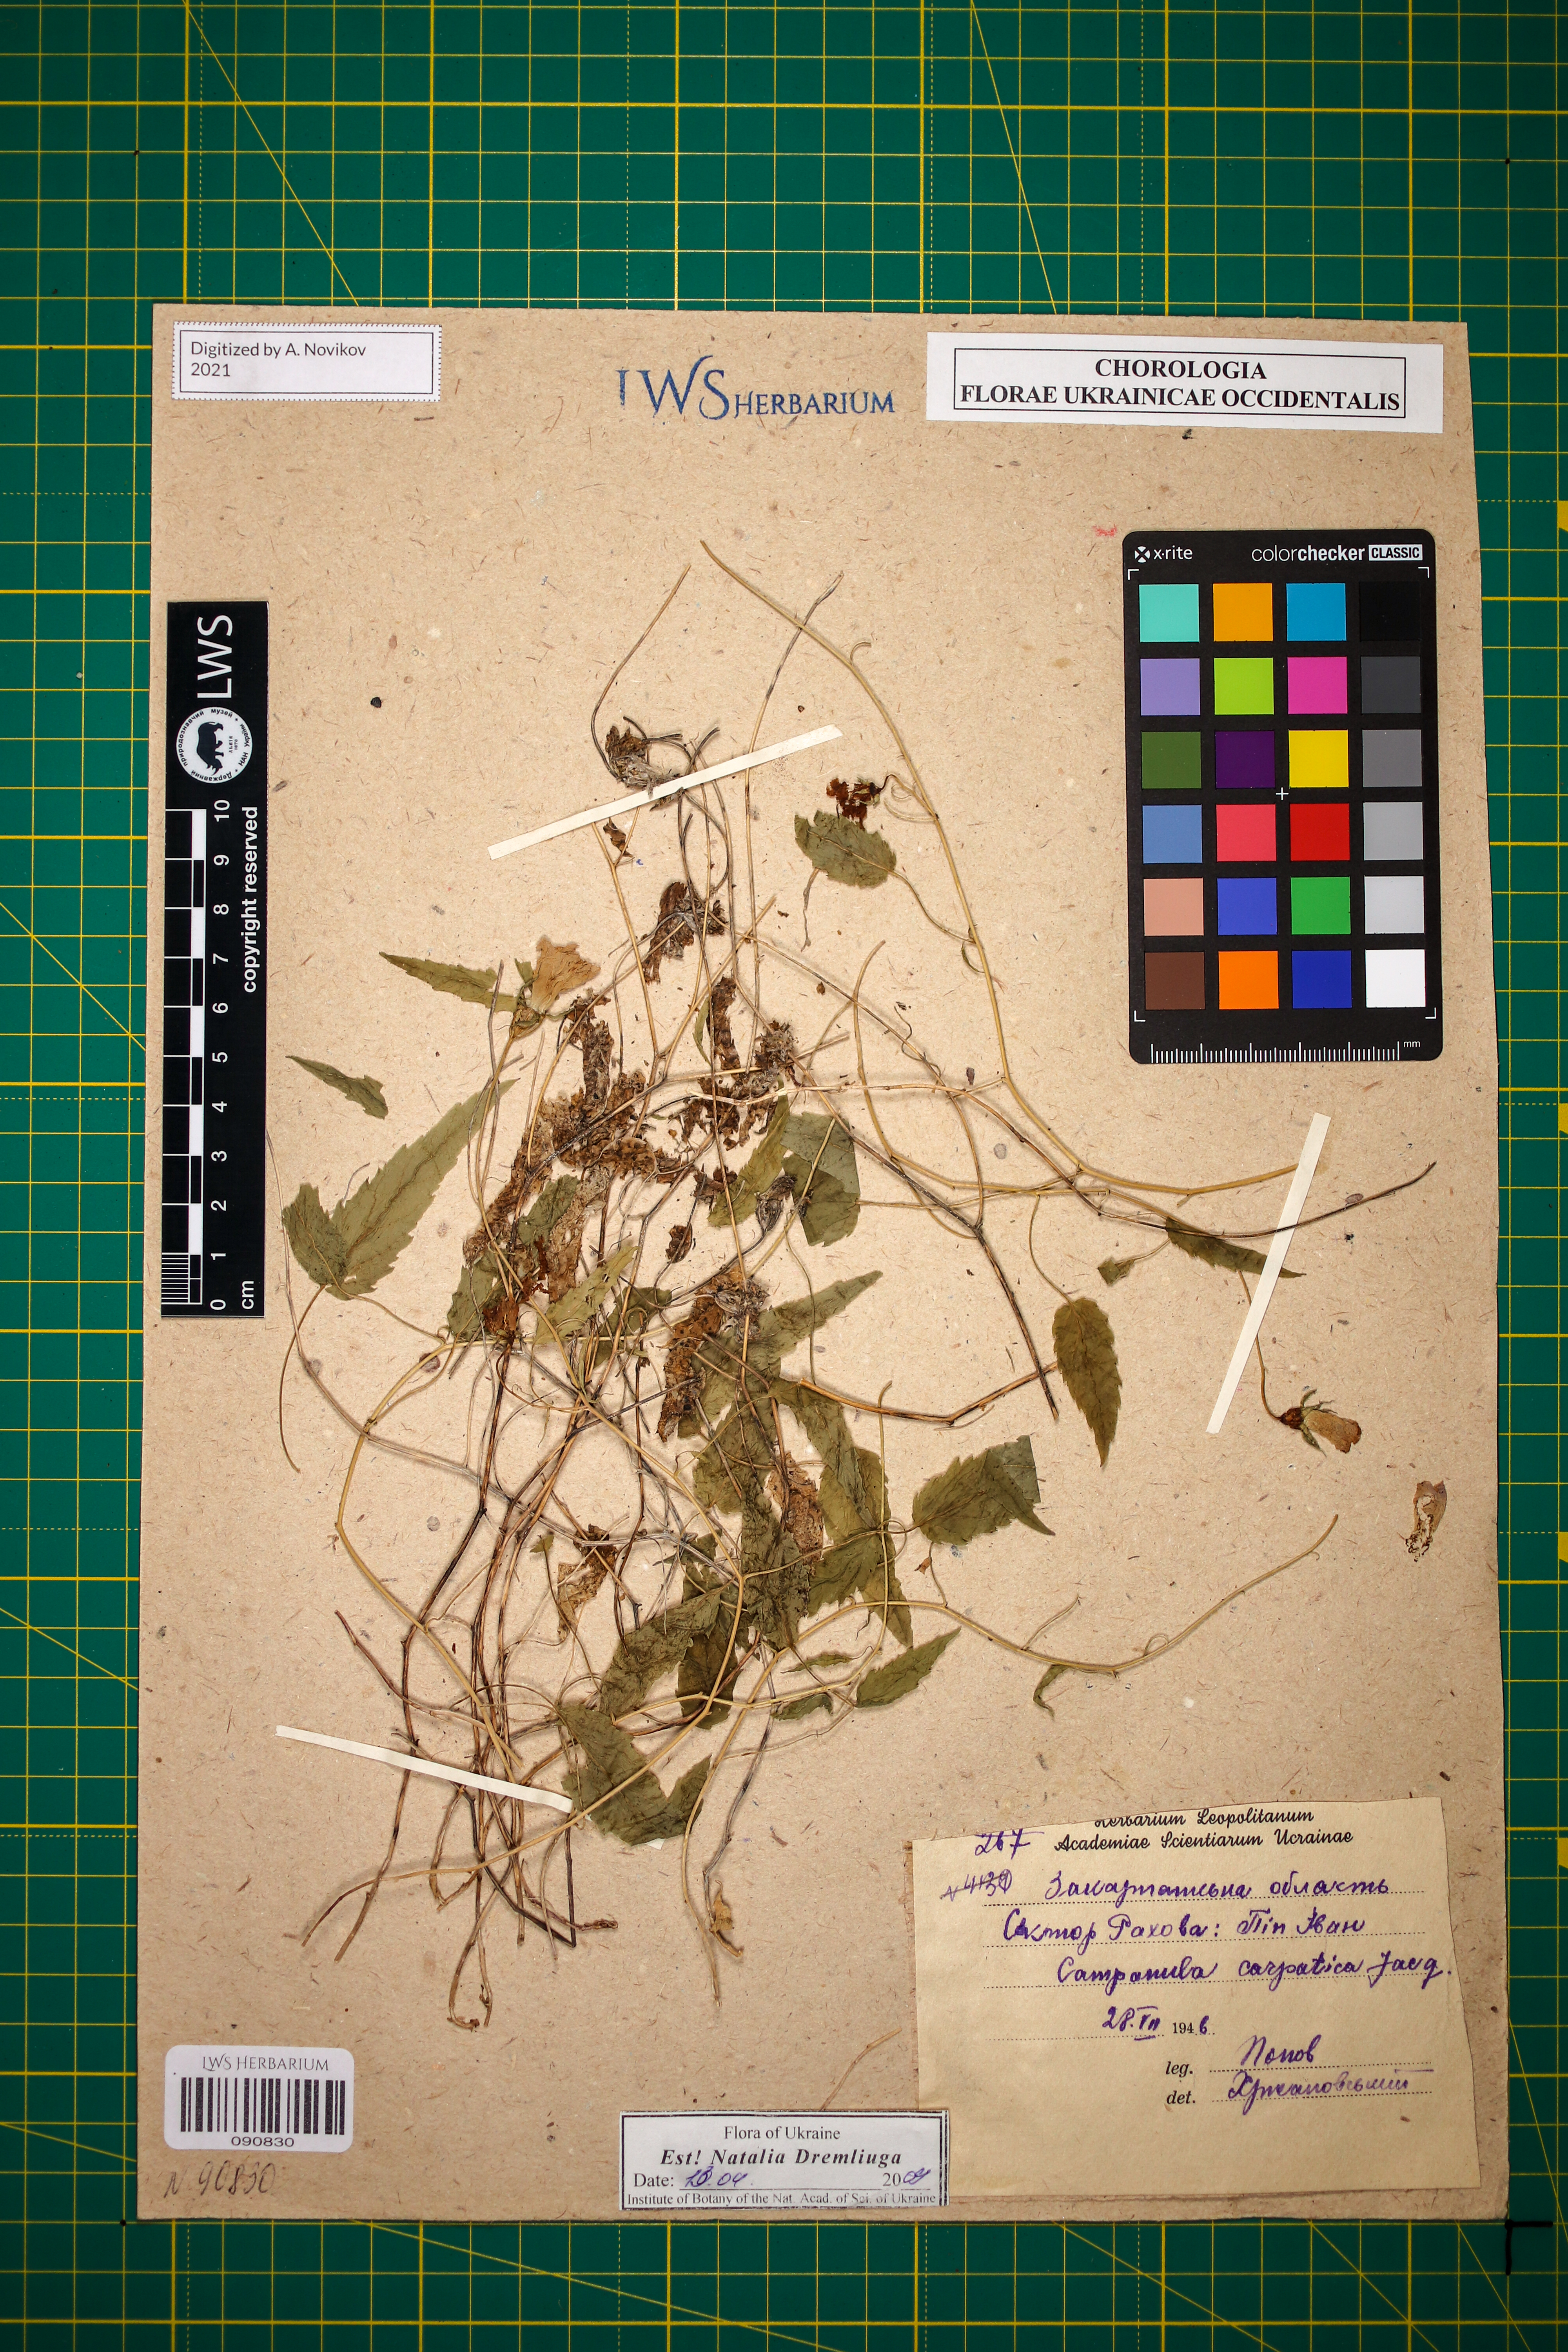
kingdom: Plantae
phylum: Tracheophyta
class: Magnoliopsida
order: Asterales
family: Campanulaceae
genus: Campanula
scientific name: Campanula carpatica
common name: Tussock bellflower
